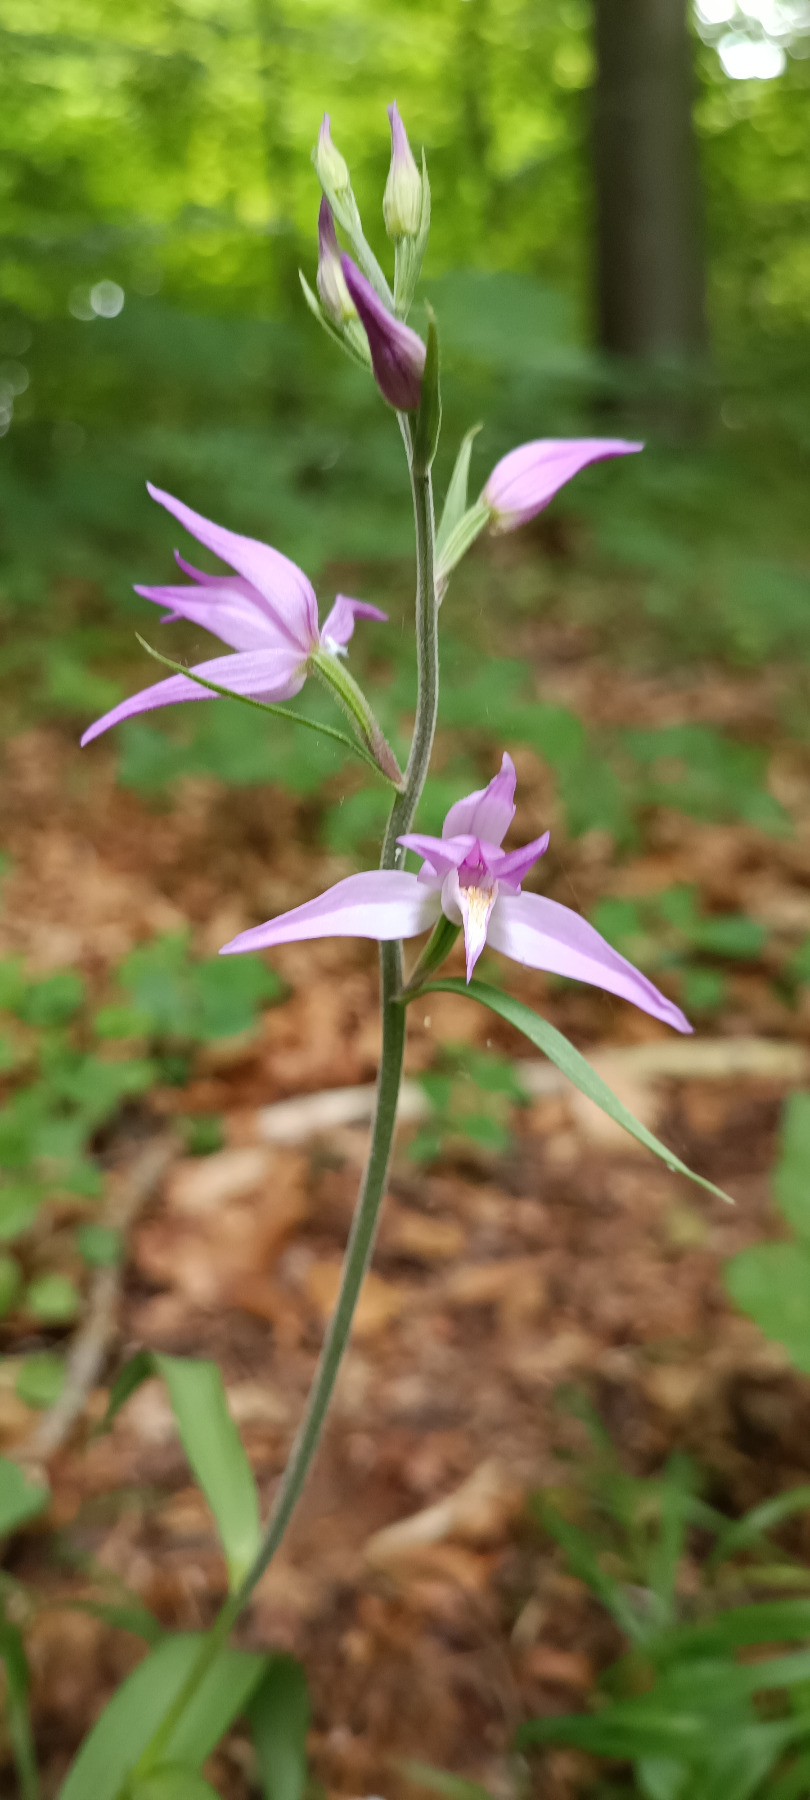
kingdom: Plantae
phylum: Tracheophyta
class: Liliopsida
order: Asparagales
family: Orchidaceae
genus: Cephalanthera
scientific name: Cephalanthera rubra
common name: Rød skovlilje
